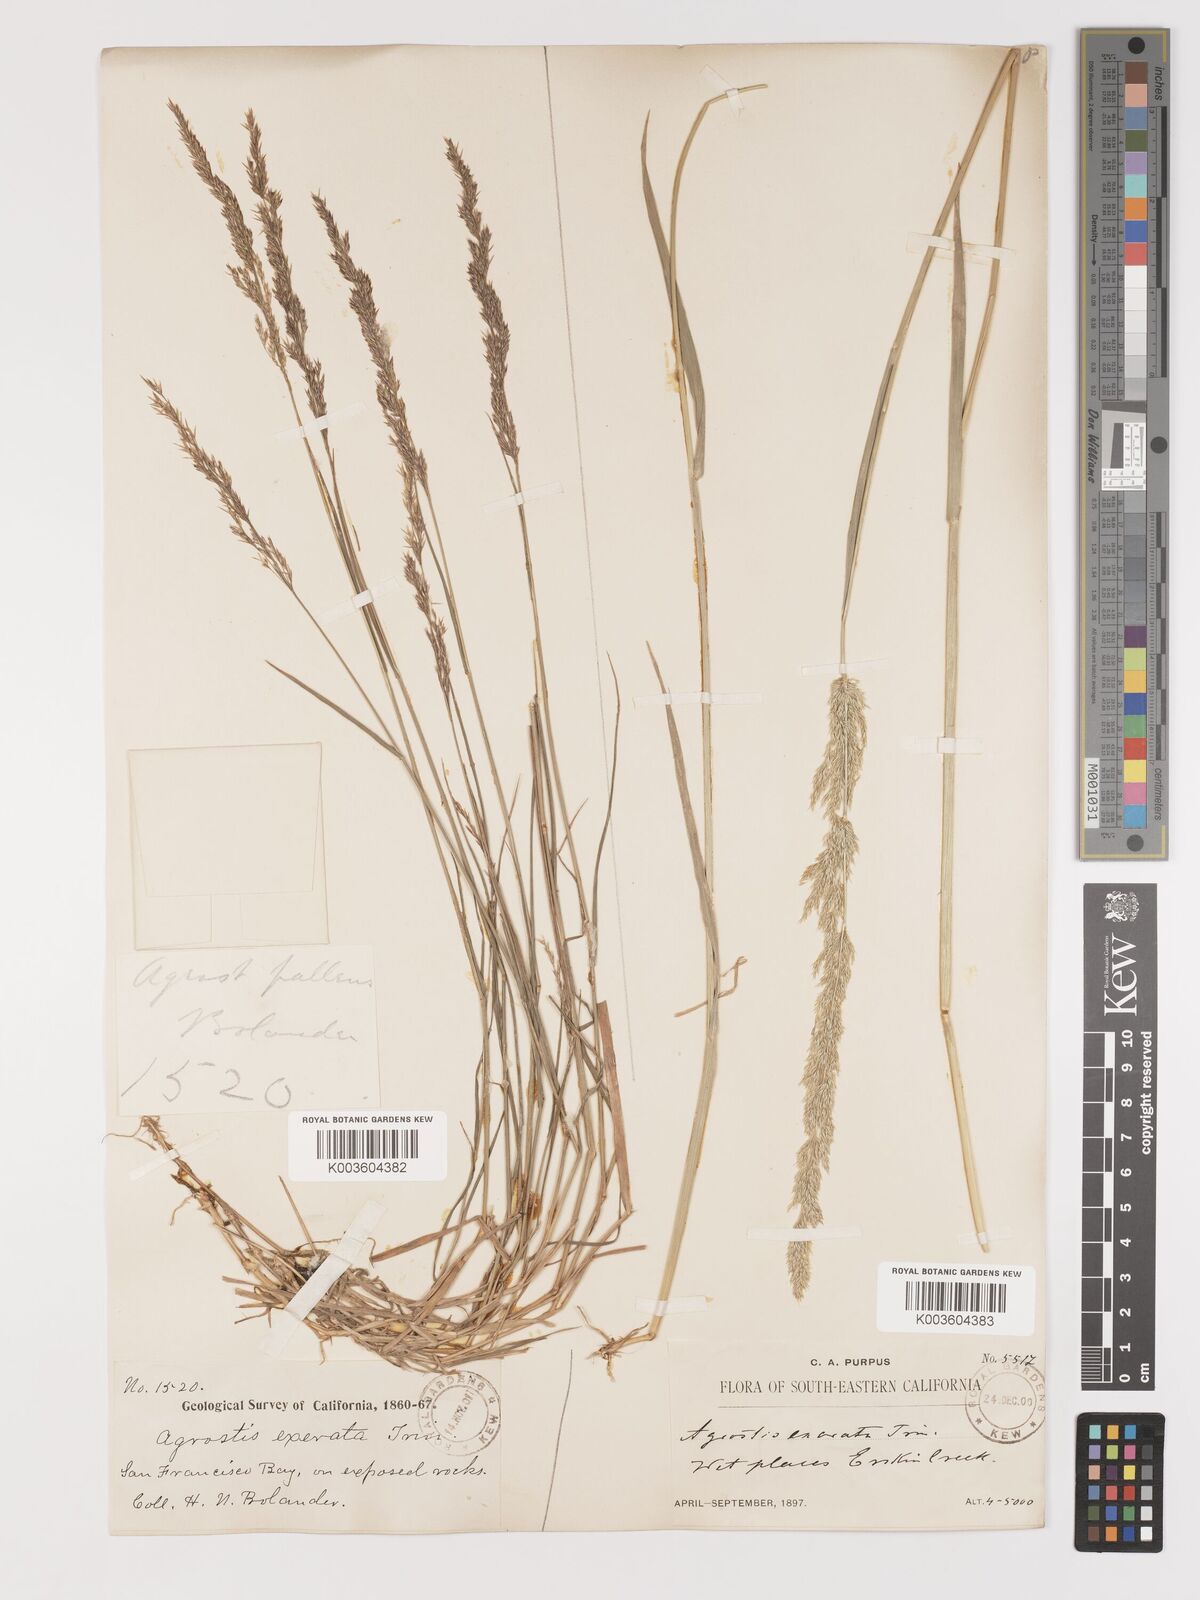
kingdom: Plantae
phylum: Tracheophyta
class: Liliopsida
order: Poales
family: Poaceae
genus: Agrostis
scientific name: Agrostis exarata
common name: Spike bent
